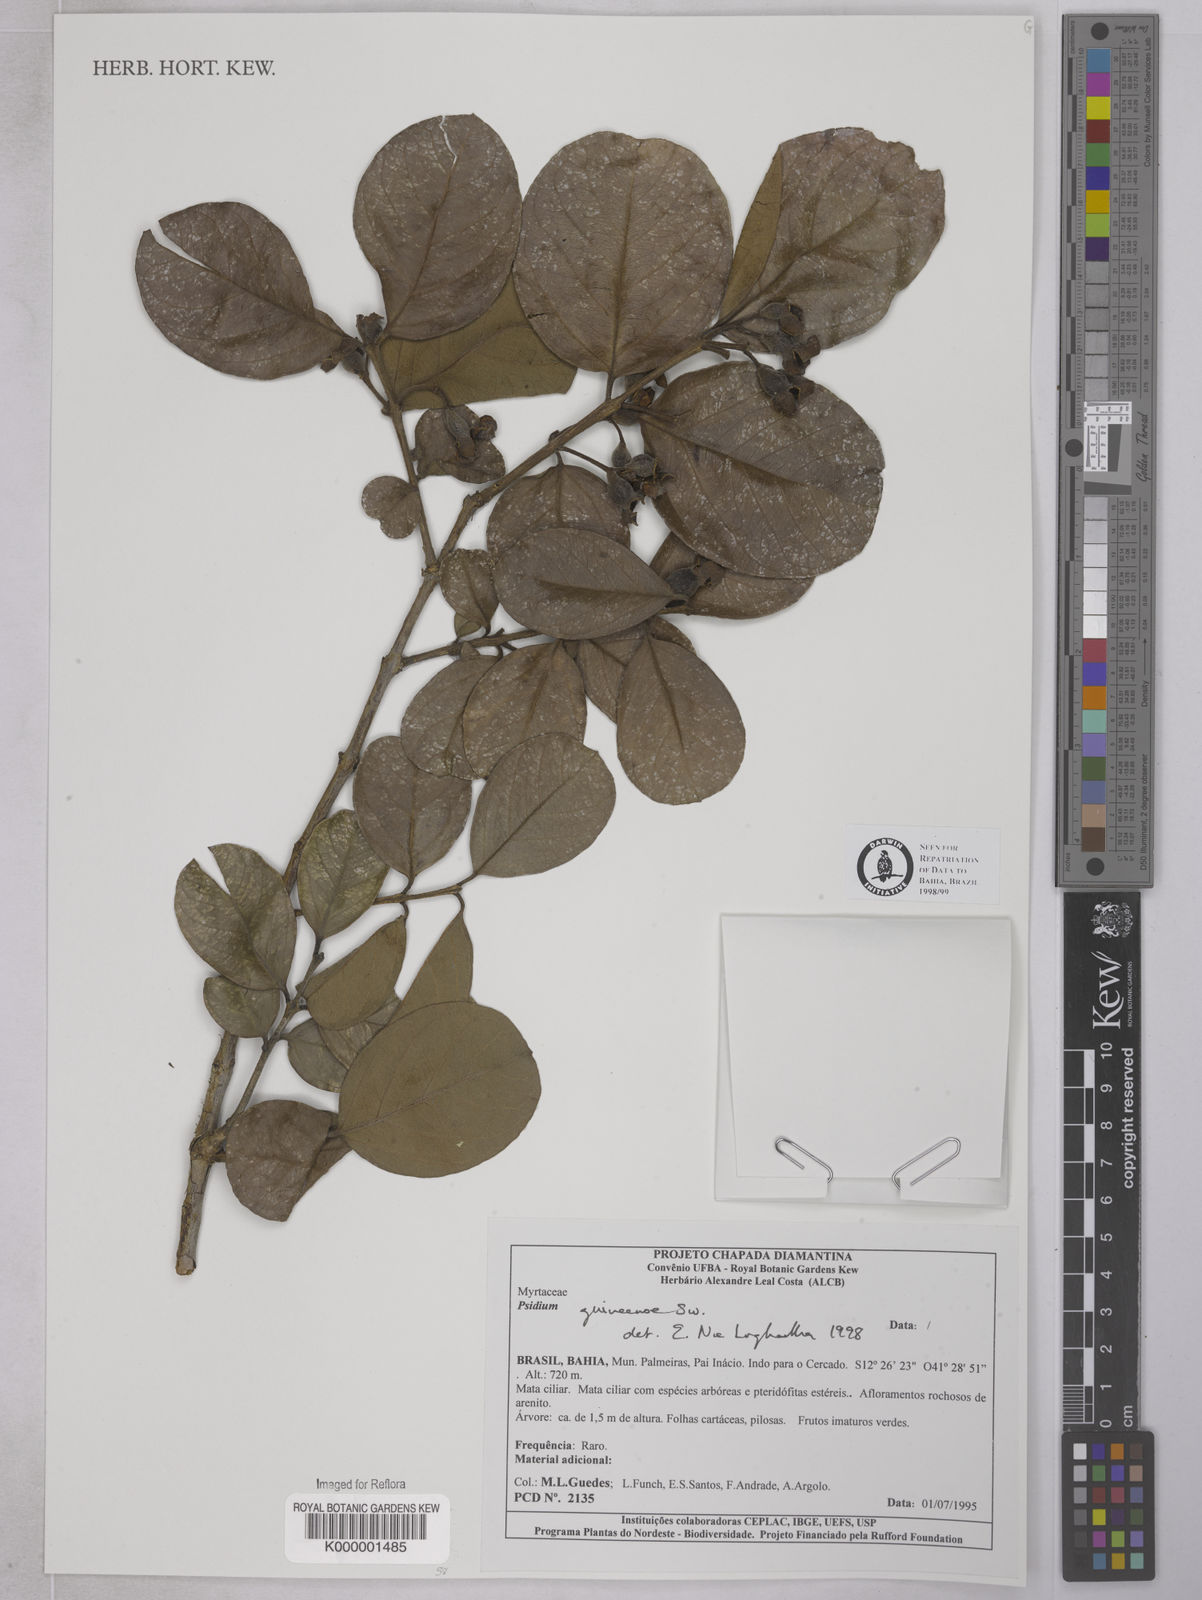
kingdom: Plantae
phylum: Tracheophyta
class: Magnoliopsida
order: Myrtales
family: Myrtaceae
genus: Psidium
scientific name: Psidium guineense
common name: Brazilian guava
